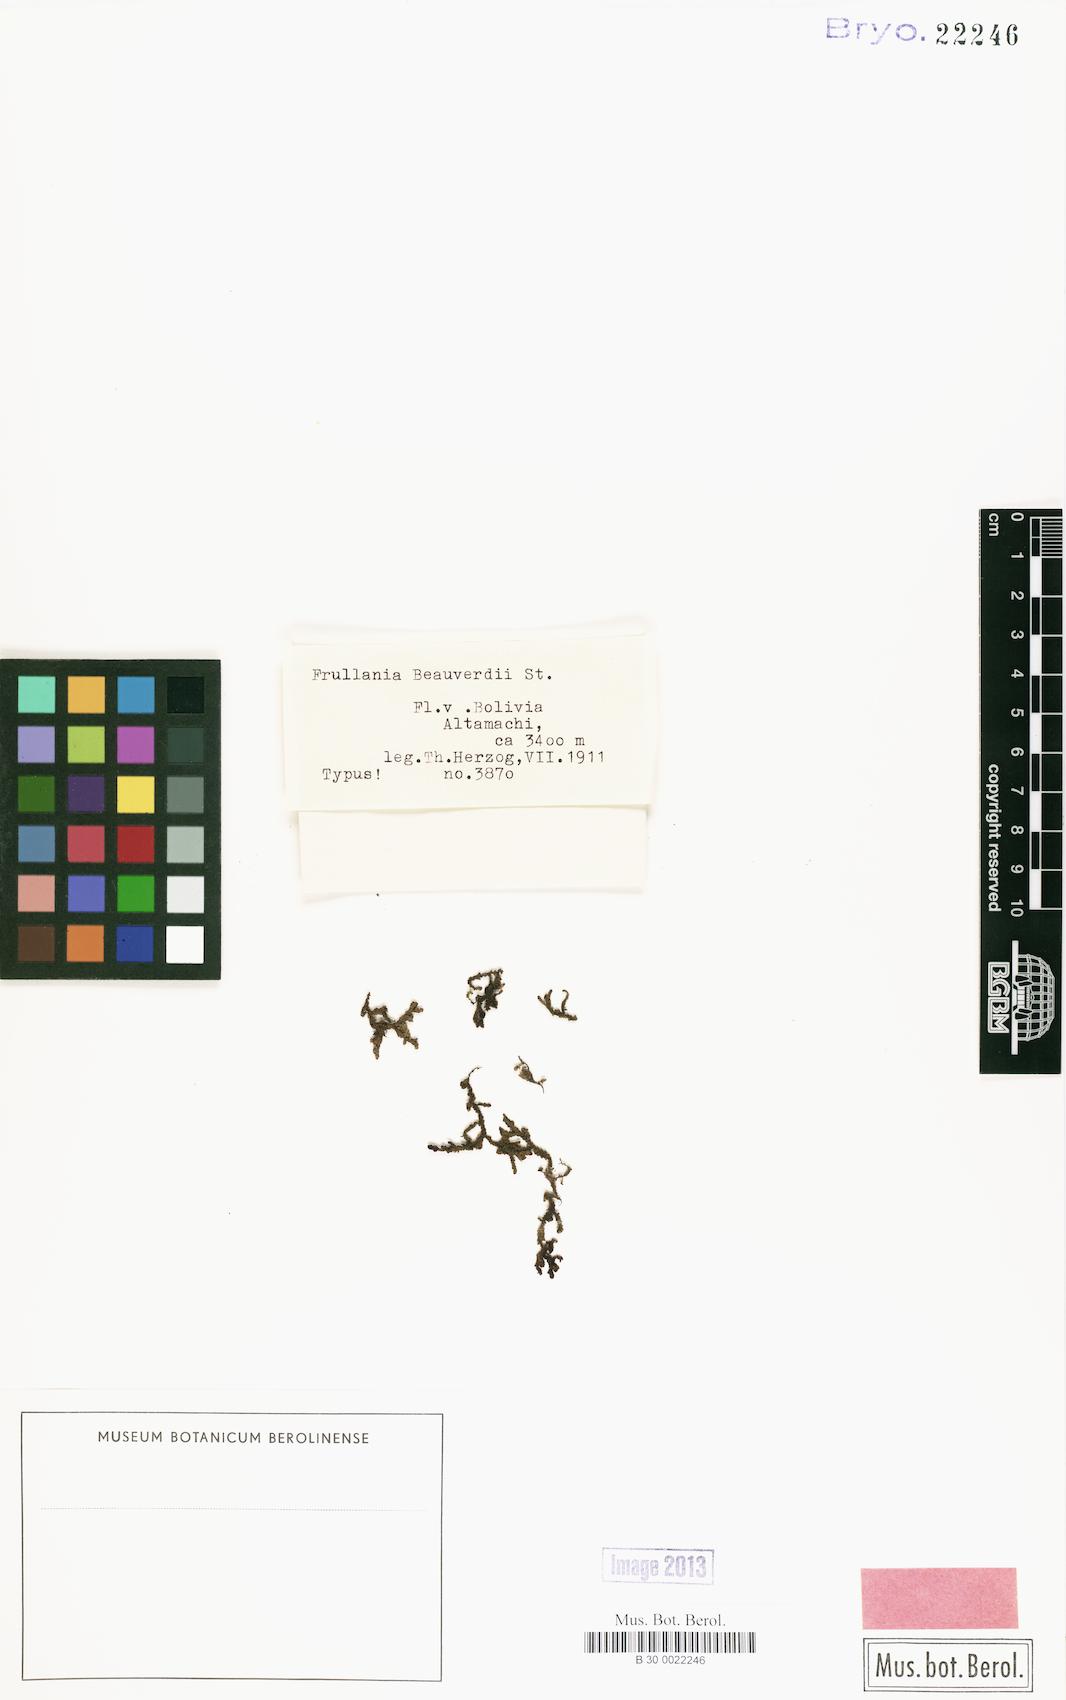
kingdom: Plantae
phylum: Marchantiophyta
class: Jungermanniopsida
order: Porellales
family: Frullaniaceae
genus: Frullania
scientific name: Frullania beauverdii
